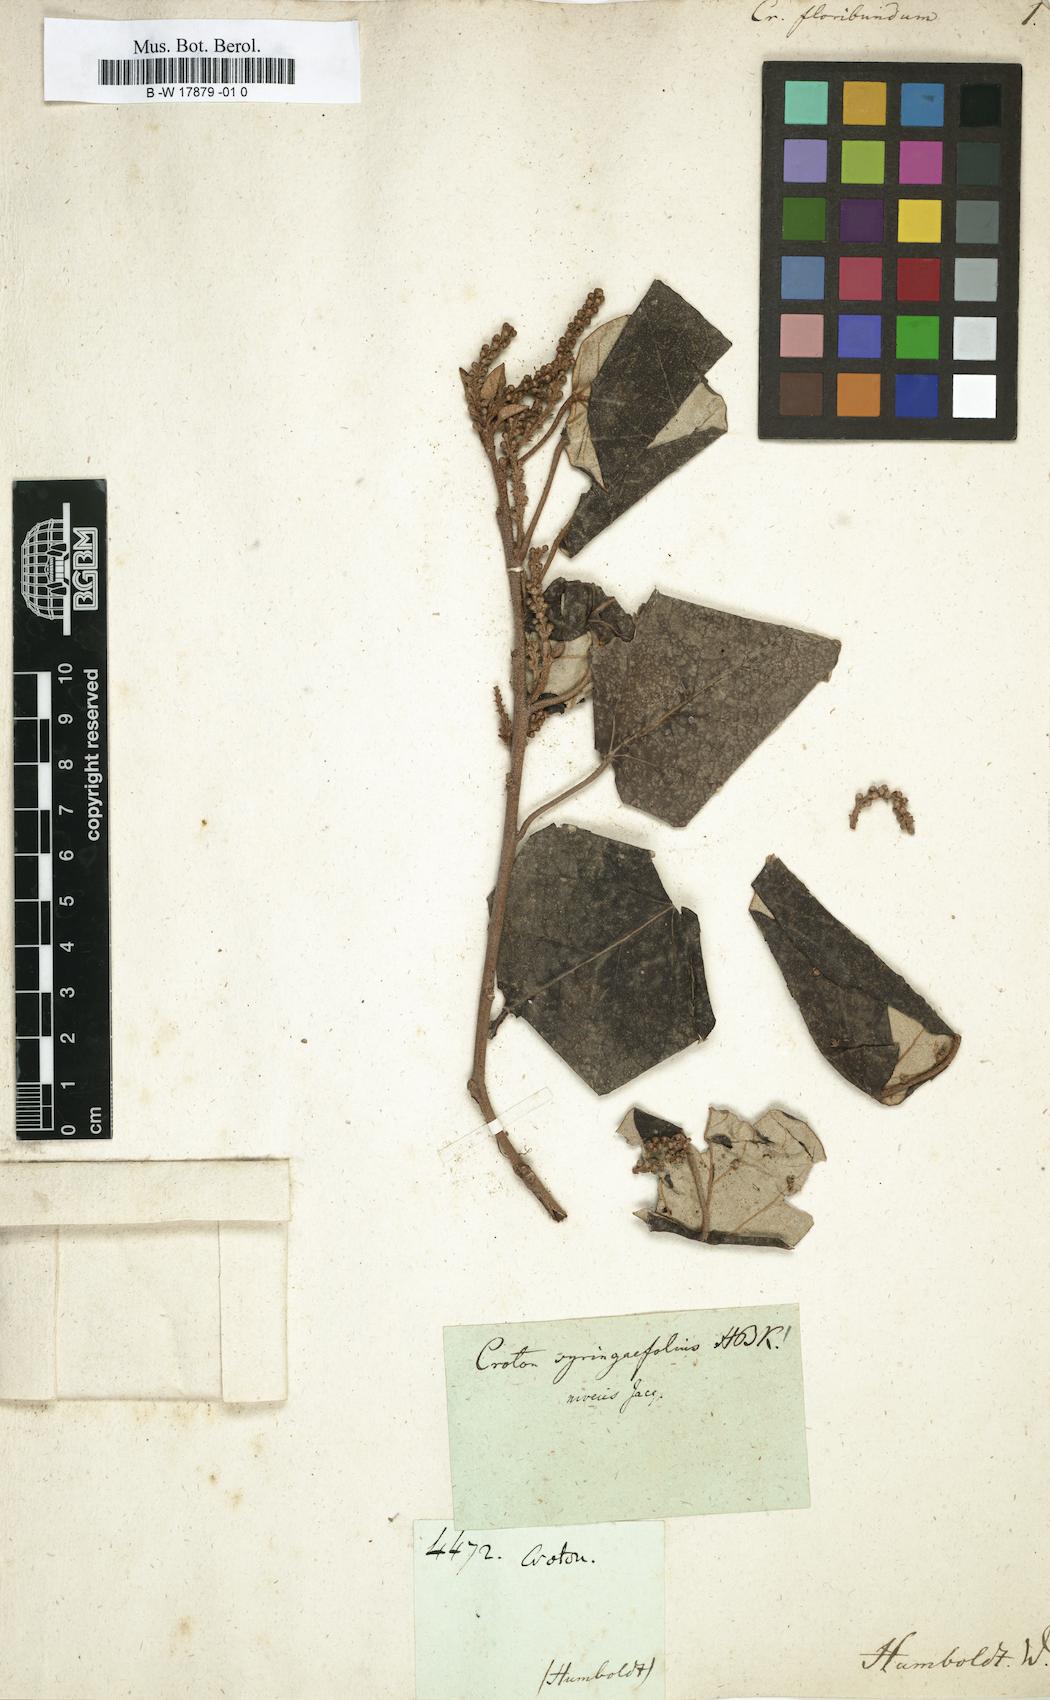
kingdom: Plantae
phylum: Tracheophyta
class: Magnoliopsida
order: Malpighiales
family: Euphorbiaceae
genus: Croton
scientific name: Croton floribundus
